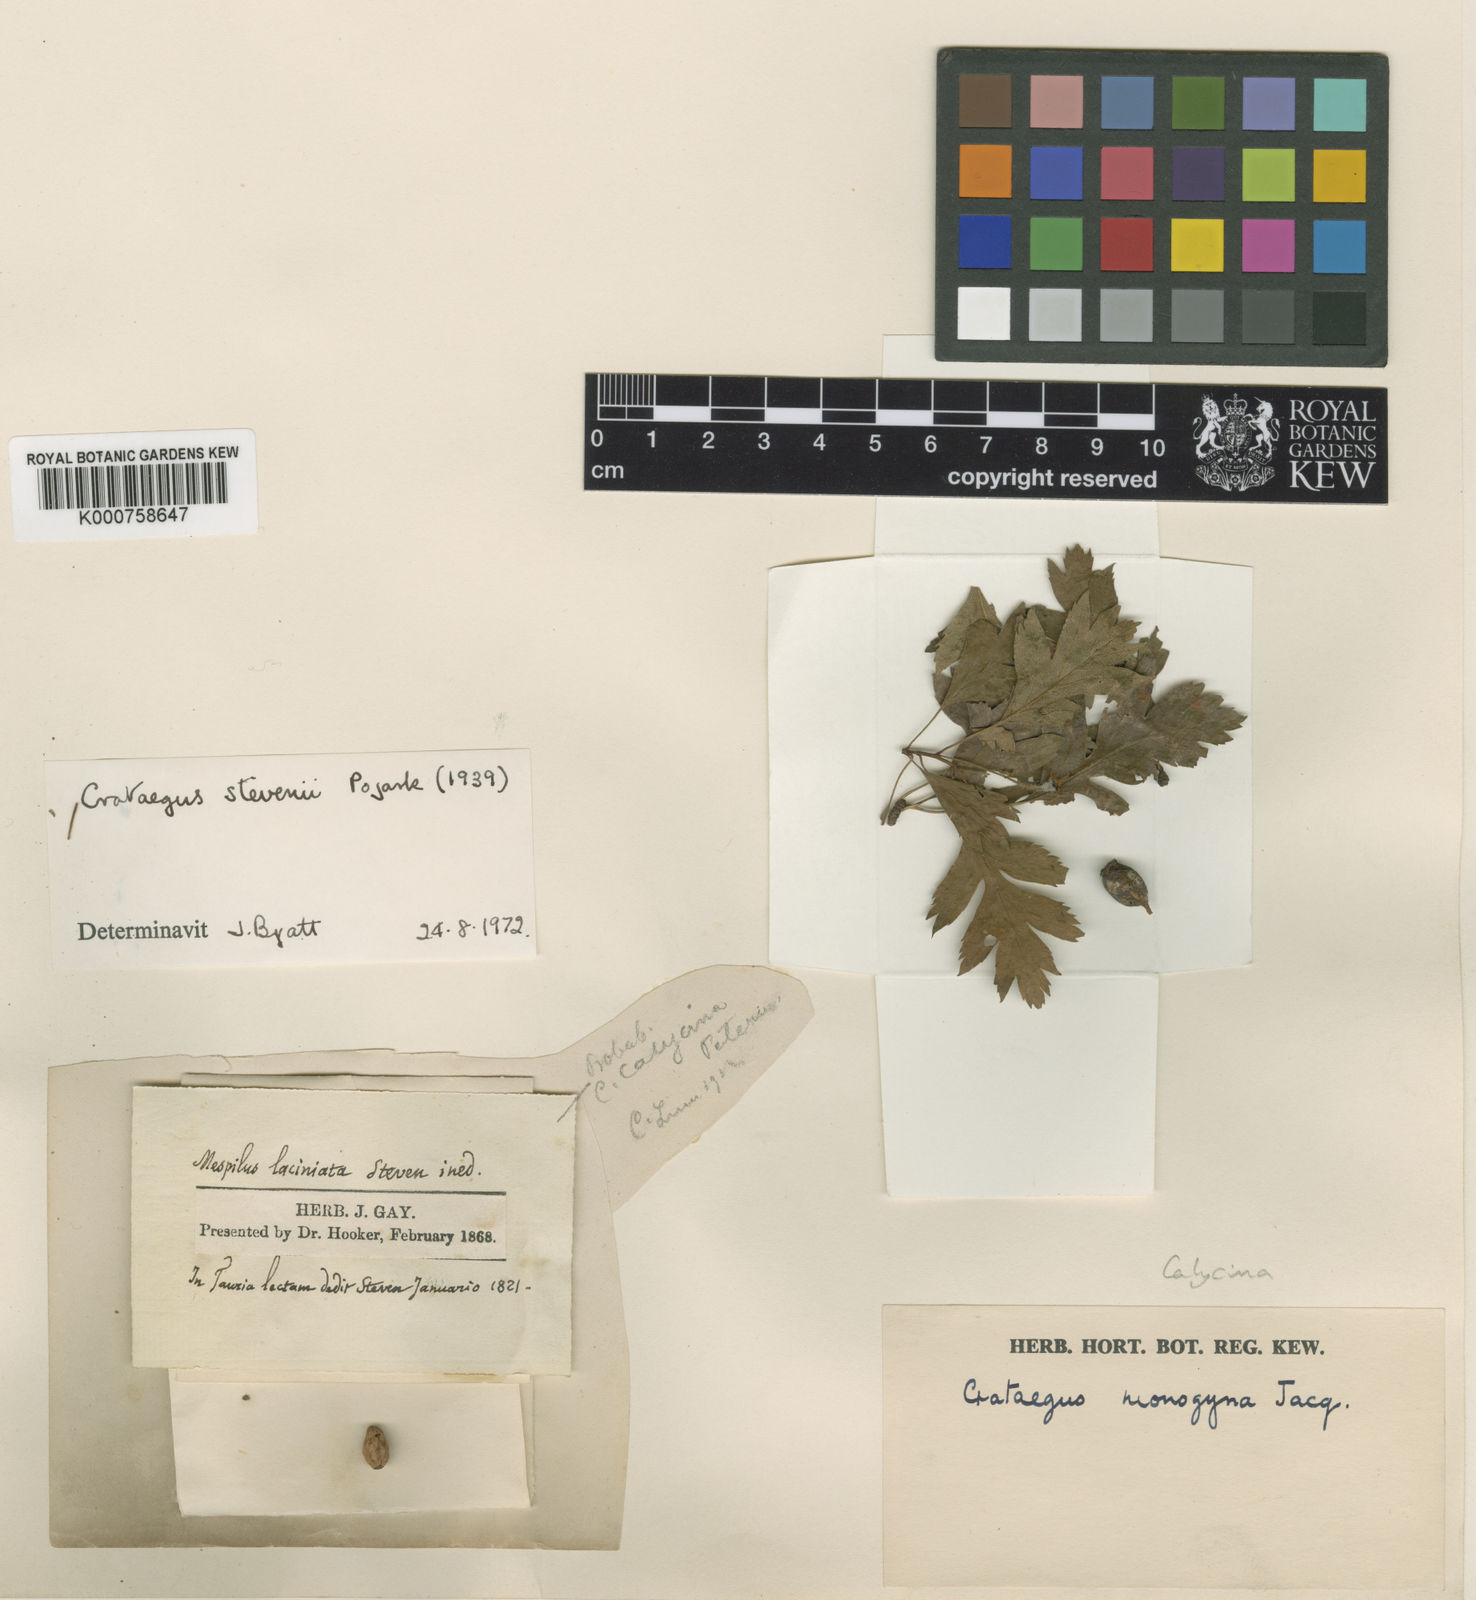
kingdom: Plantae
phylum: Tracheophyta
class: Magnoliopsida
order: Rosales
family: Rosaceae
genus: Crataegus
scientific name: Crataegus monogyna
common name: Hawthorn
